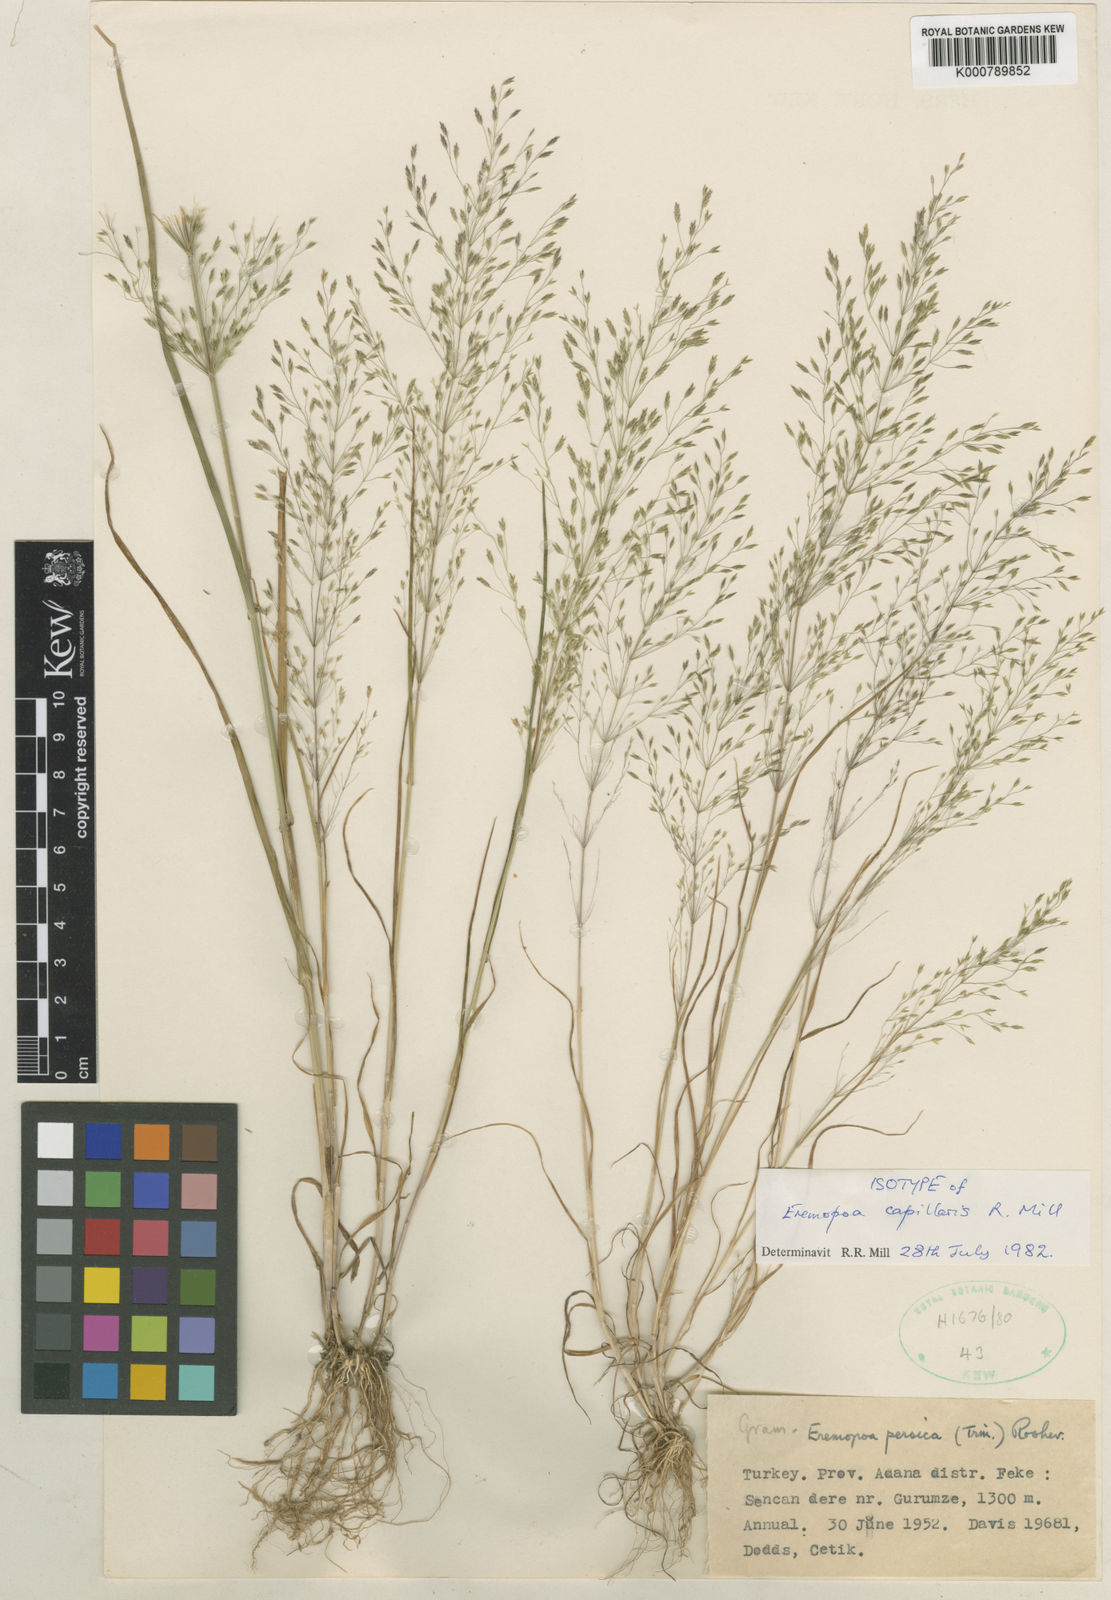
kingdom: Plantae
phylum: Tracheophyta
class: Liliopsida
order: Poales
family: Poaceae
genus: Poa
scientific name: Poa millii
